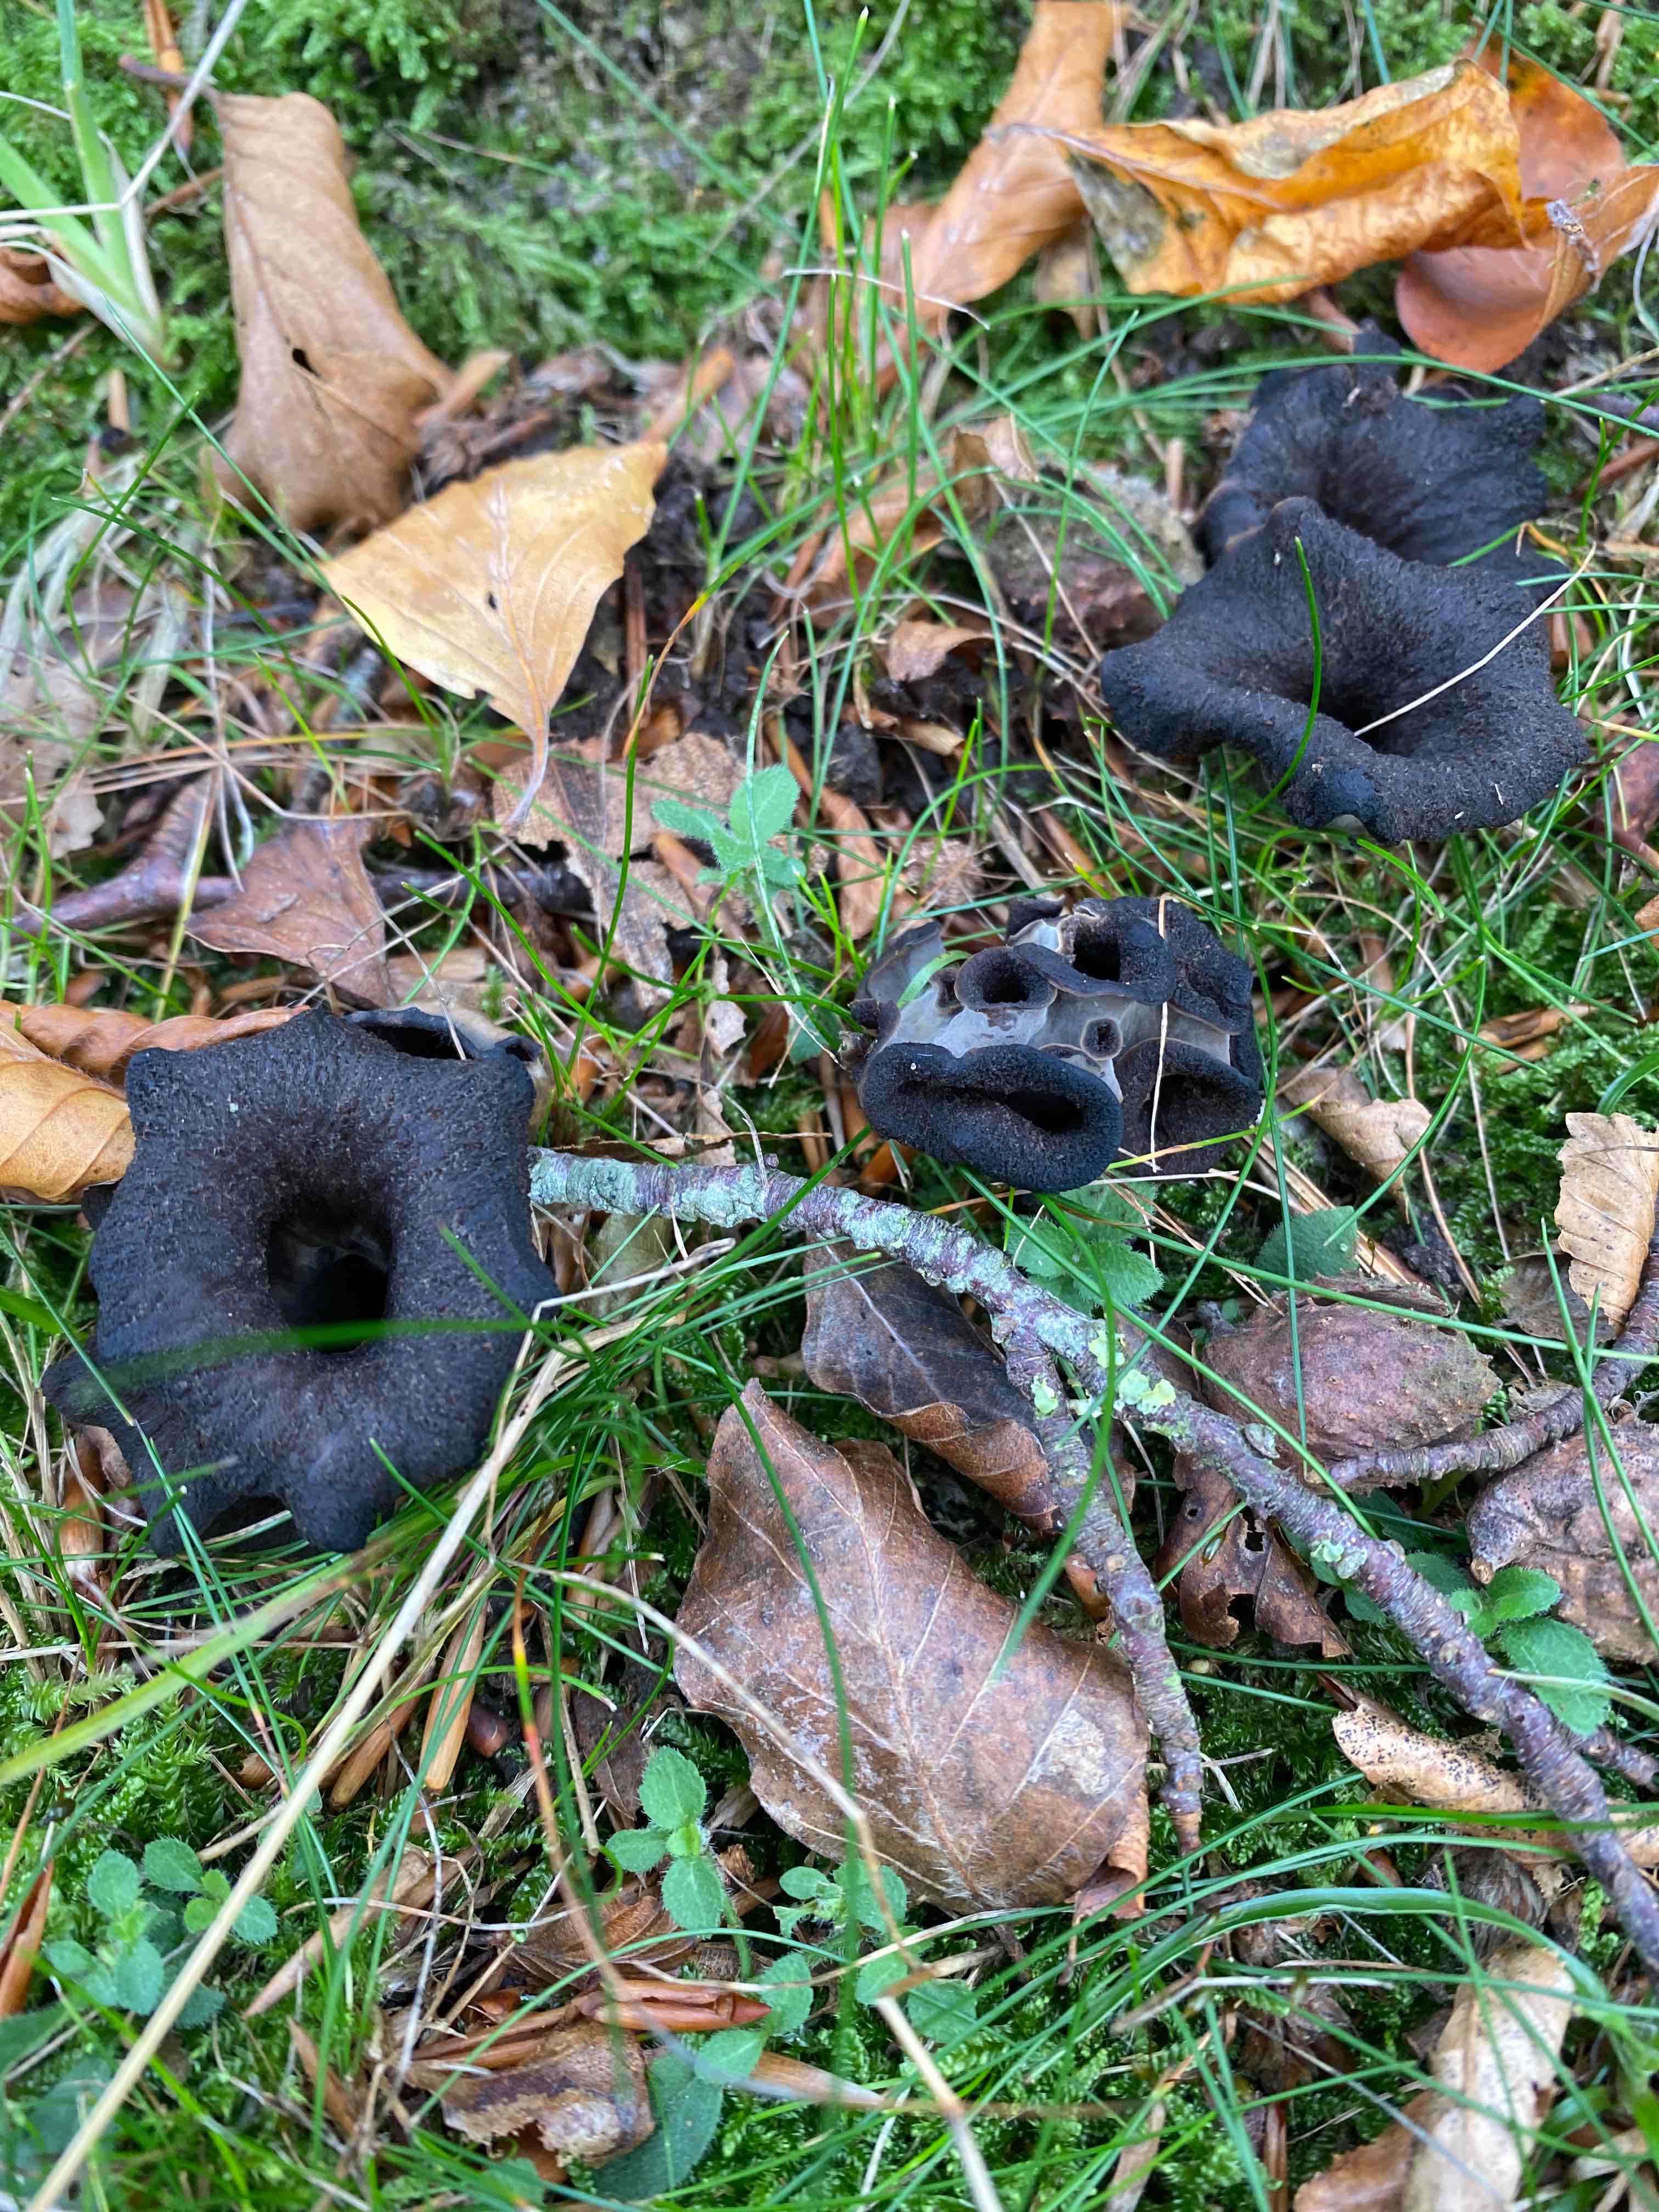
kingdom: Fungi
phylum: Basidiomycota
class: Agaricomycetes
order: Cantharellales
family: Hydnaceae
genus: Craterellus
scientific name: Craterellus cornucopioides
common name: trompetsvamp
